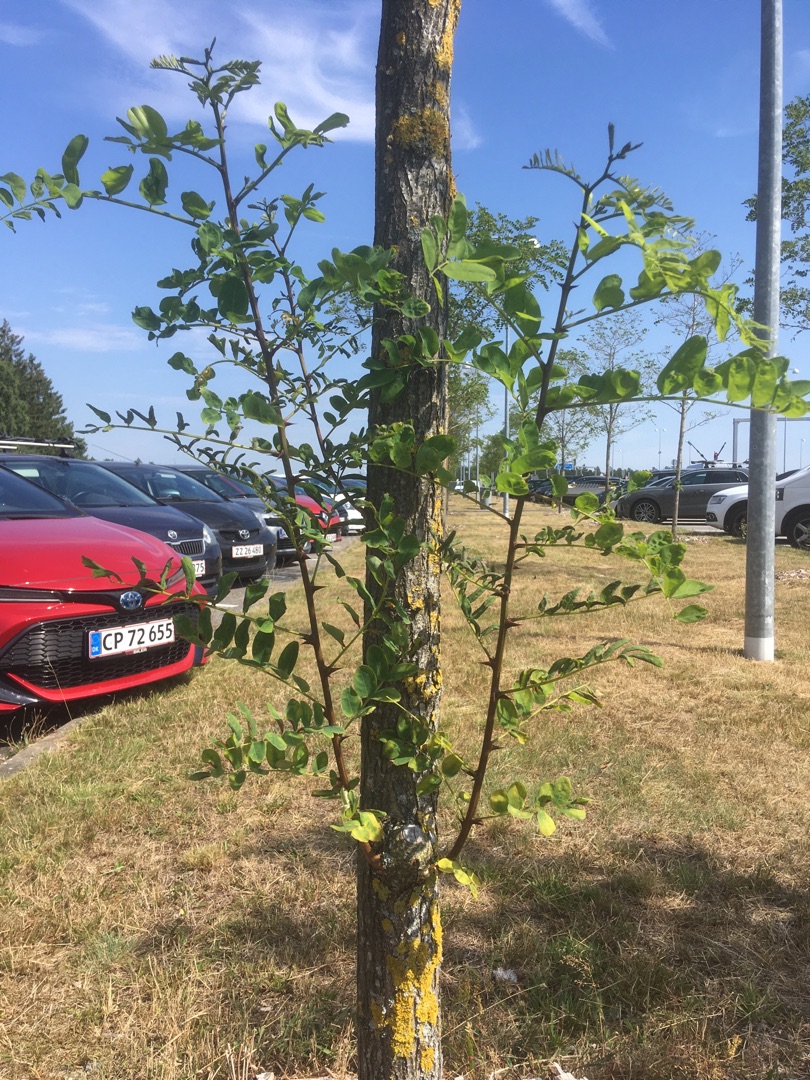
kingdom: Plantae
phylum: Tracheophyta
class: Magnoliopsida
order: Fabales
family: Fabaceae
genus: Robinia
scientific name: Robinia pseudoacacia
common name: Robinie
